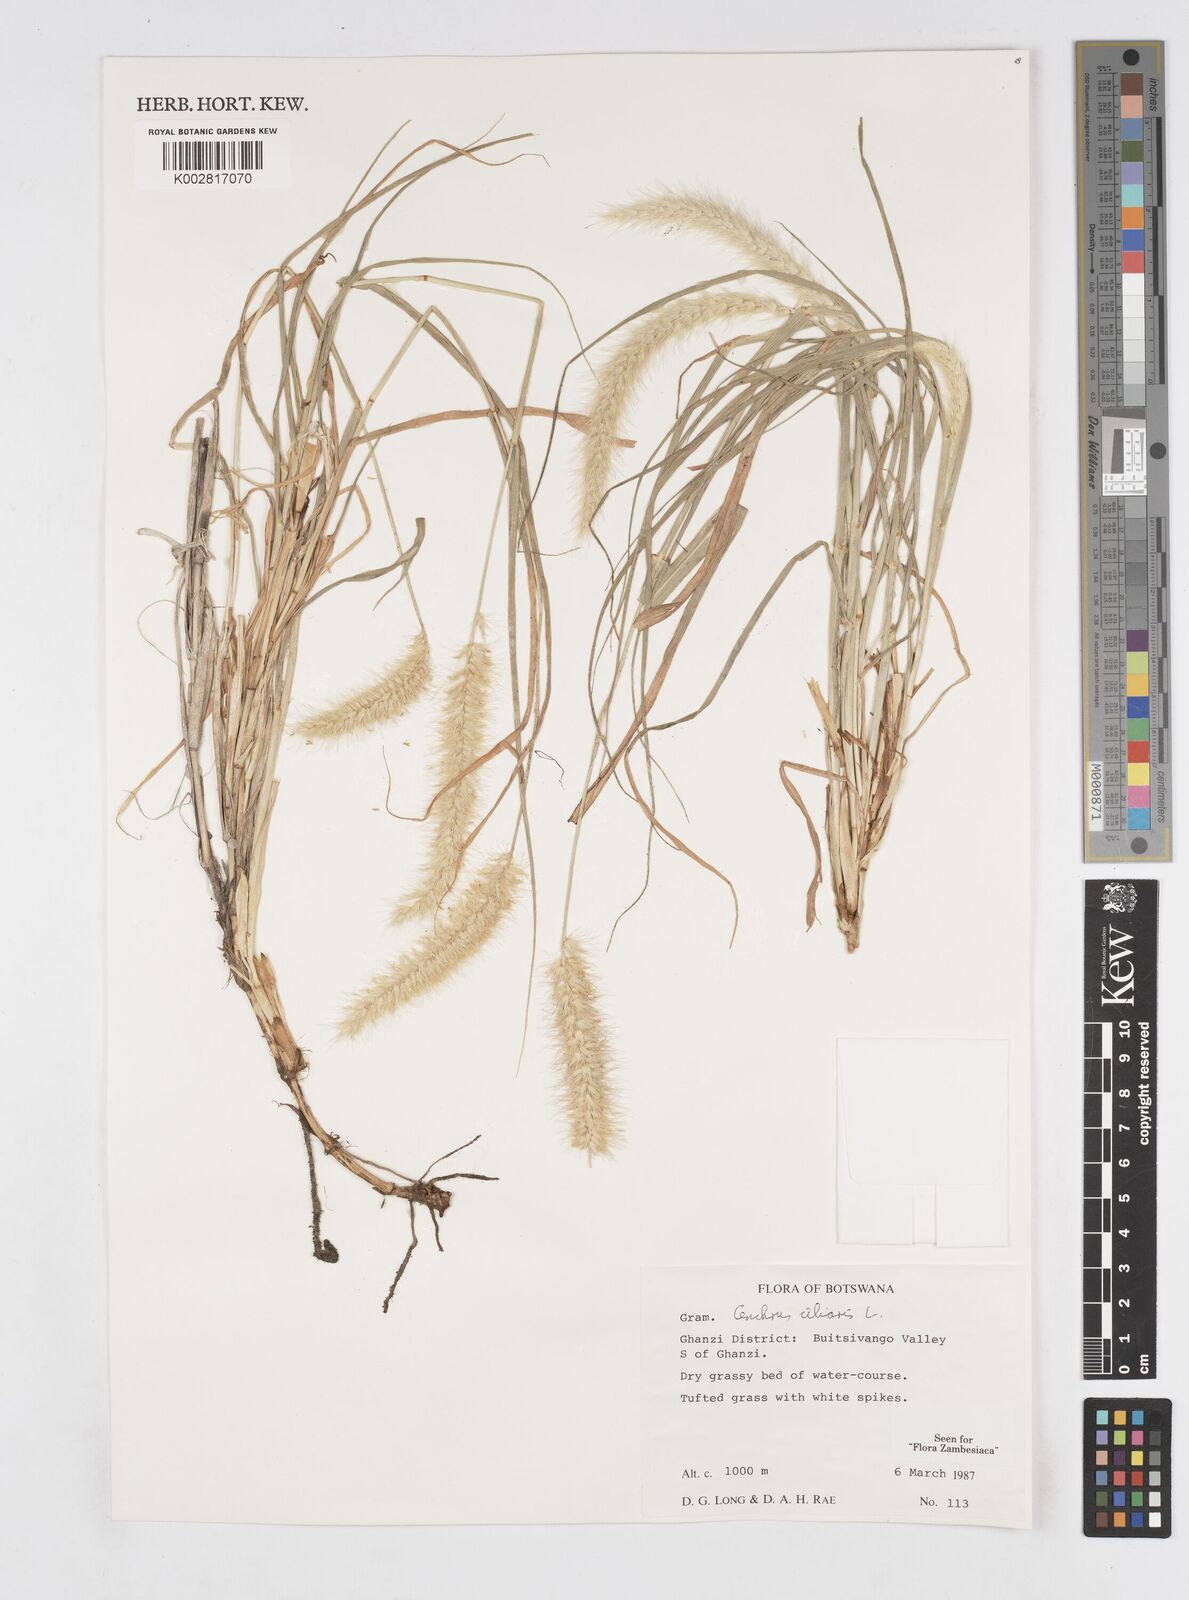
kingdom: Plantae
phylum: Tracheophyta
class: Liliopsida
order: Poales
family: Poaceae
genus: Cenchrus
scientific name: Cenchrus ciliaris
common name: Buffelgrass
